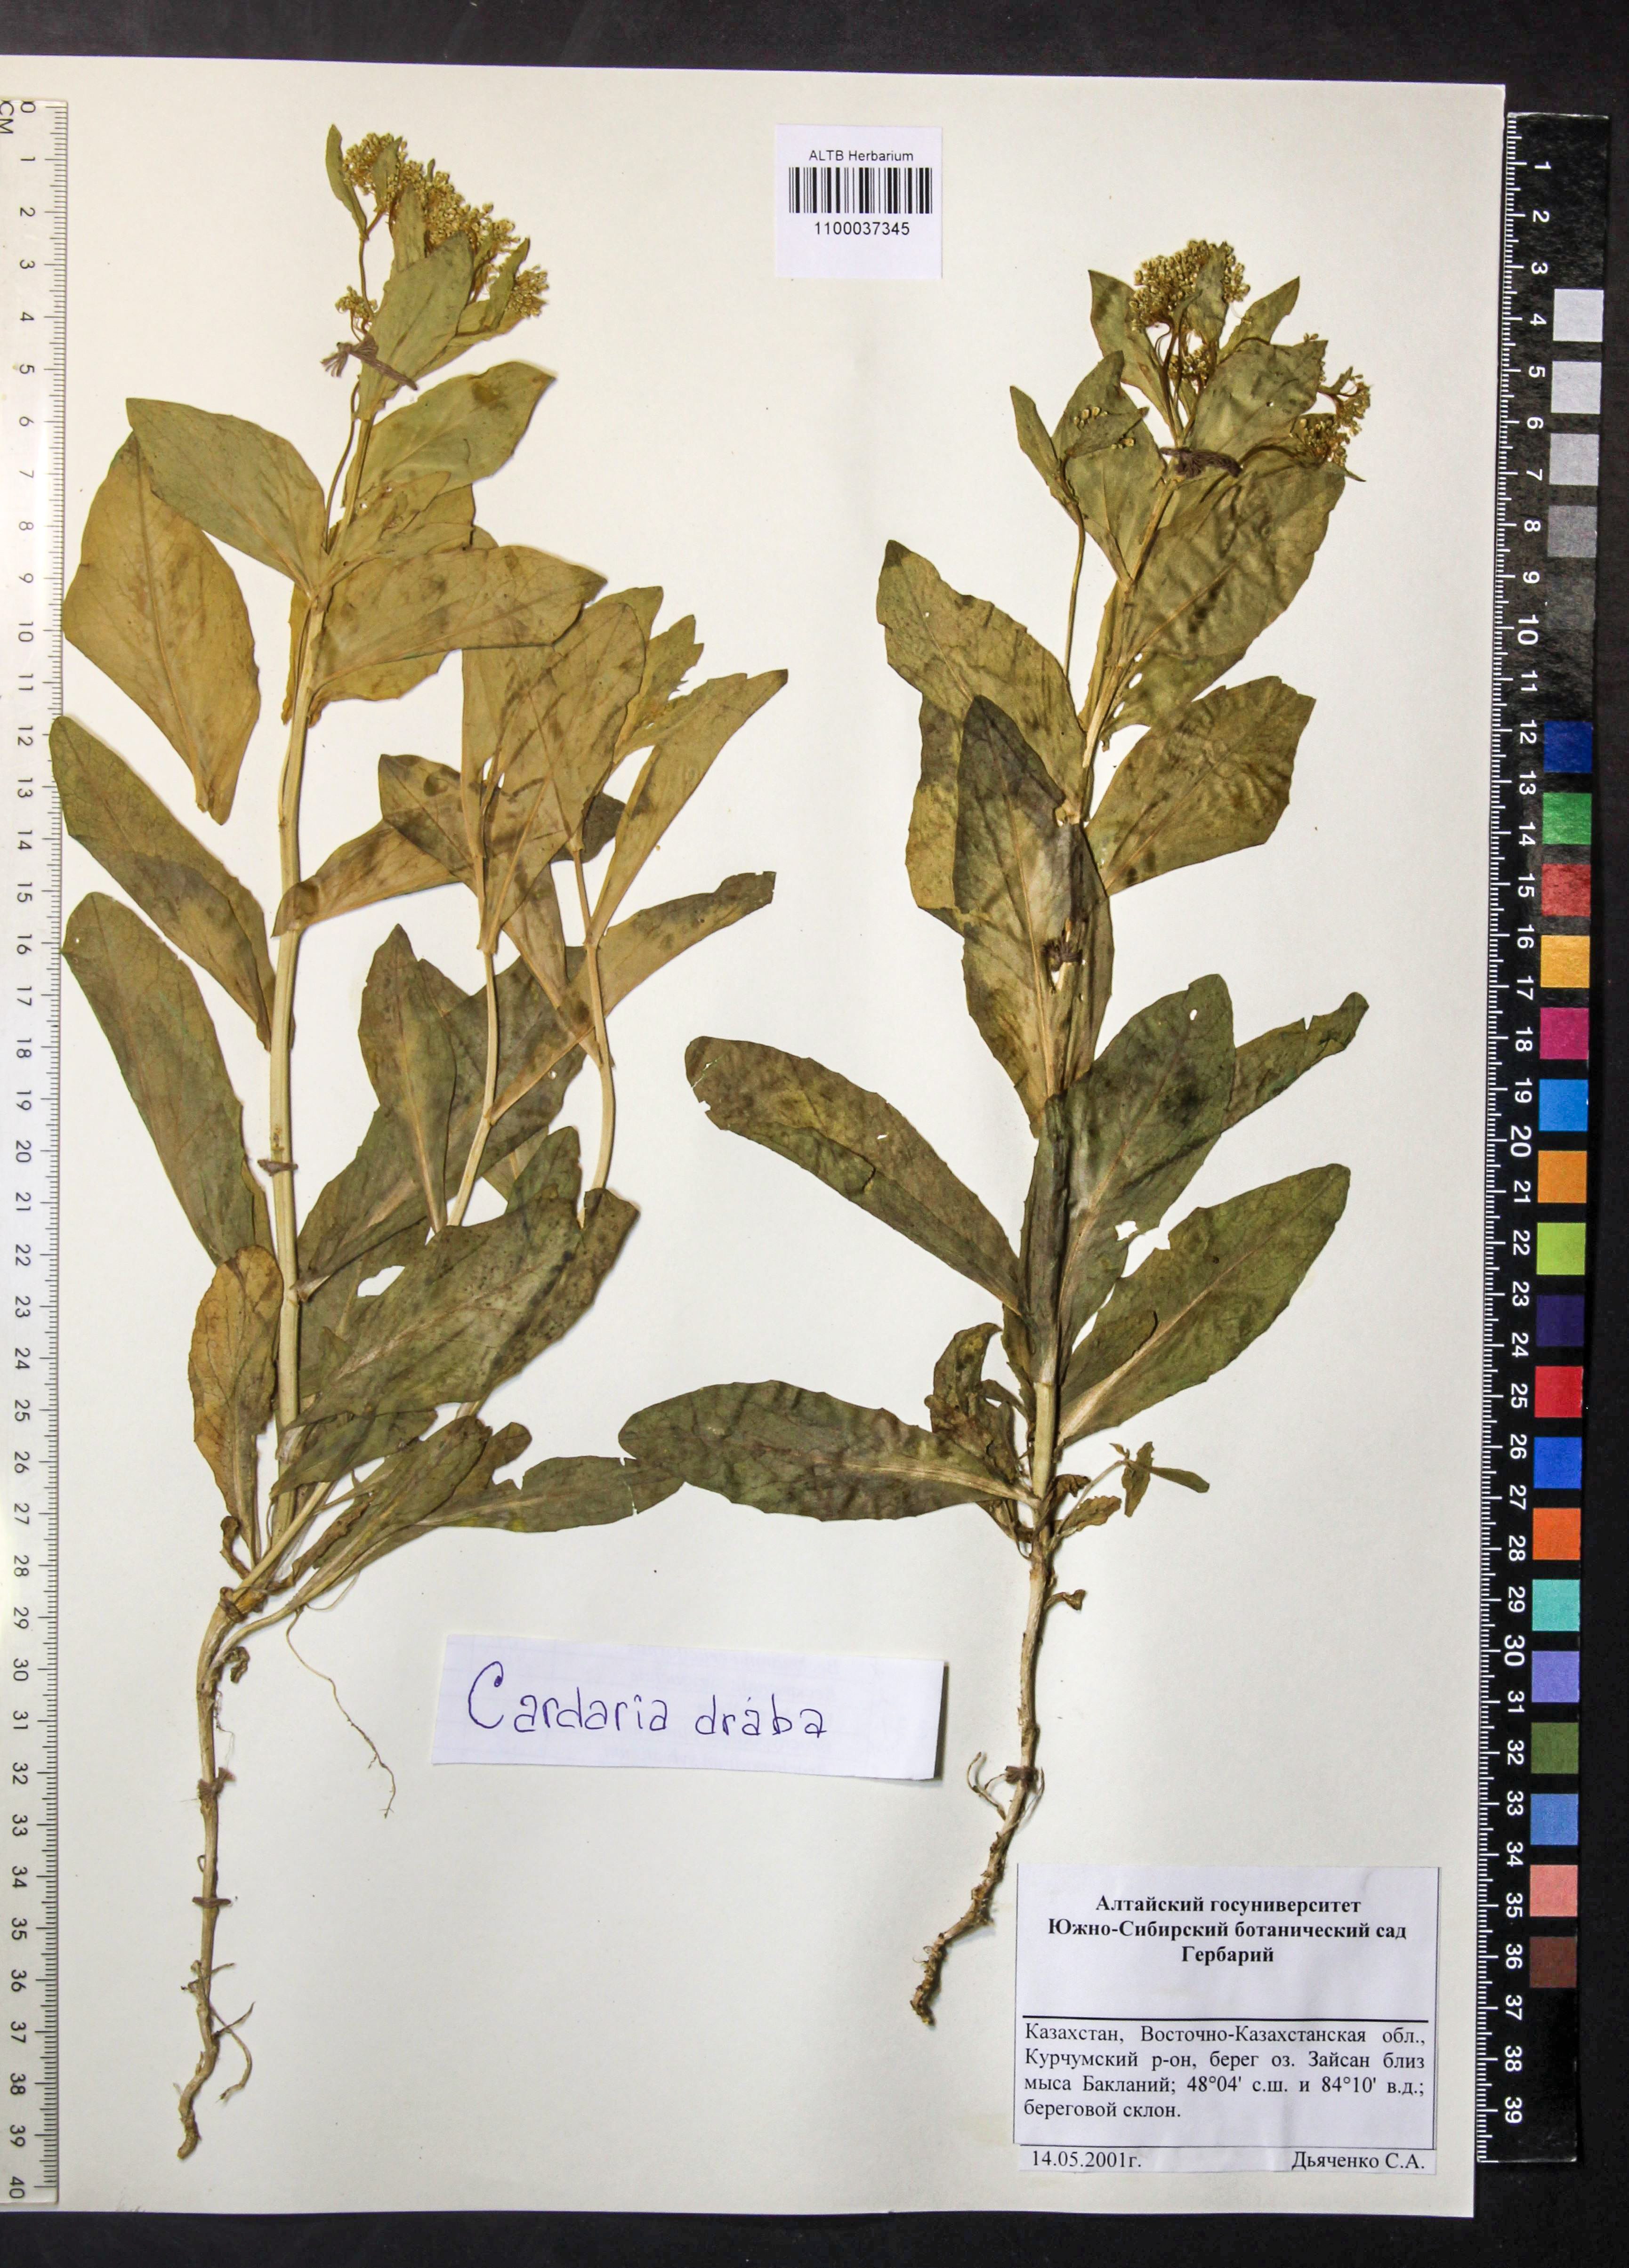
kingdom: Plantae
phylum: Tracheophyta
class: Magnoliopsida
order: Brassicales
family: Brassicaceae
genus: Lepidium
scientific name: Lepidium draba
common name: Hoary cress
